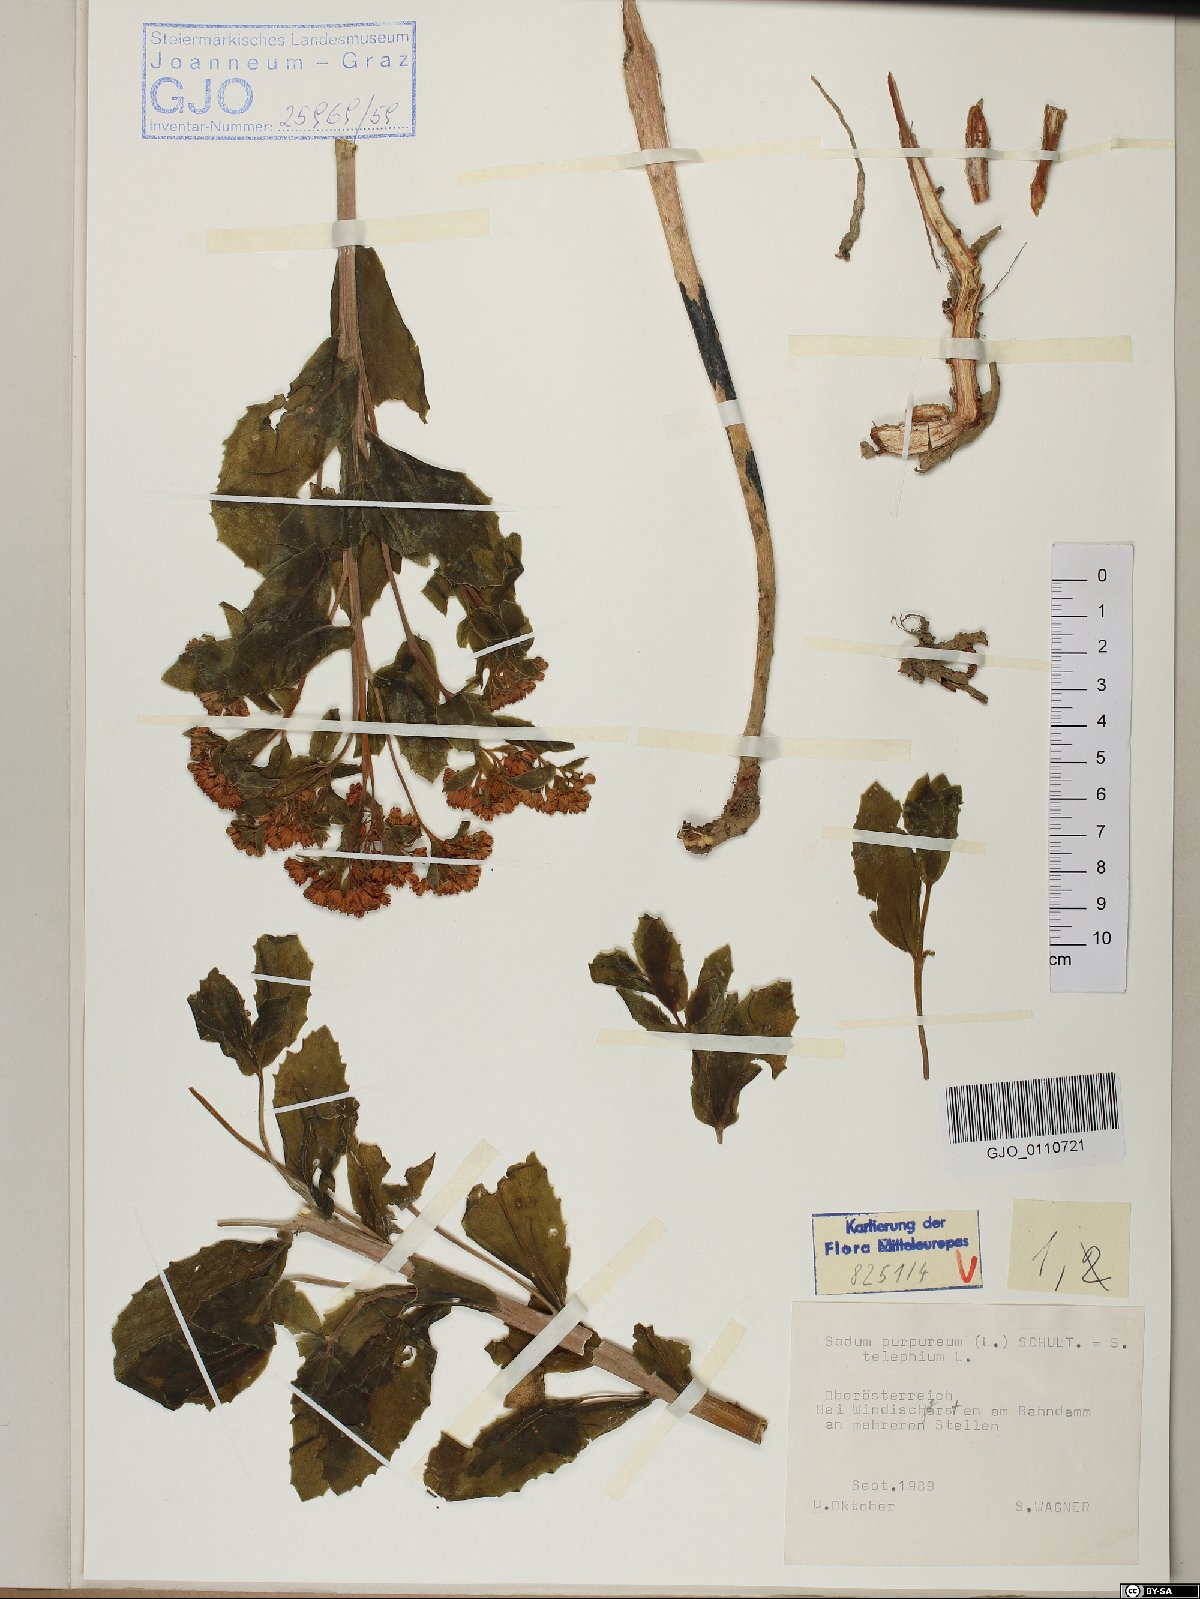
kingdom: Plantae
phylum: Tracheophyta
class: Magnoliopsida
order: Saxifragales
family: Crassulaceae
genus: Hylotelephium
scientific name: Hylotelephium telephium
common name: Live-forever
